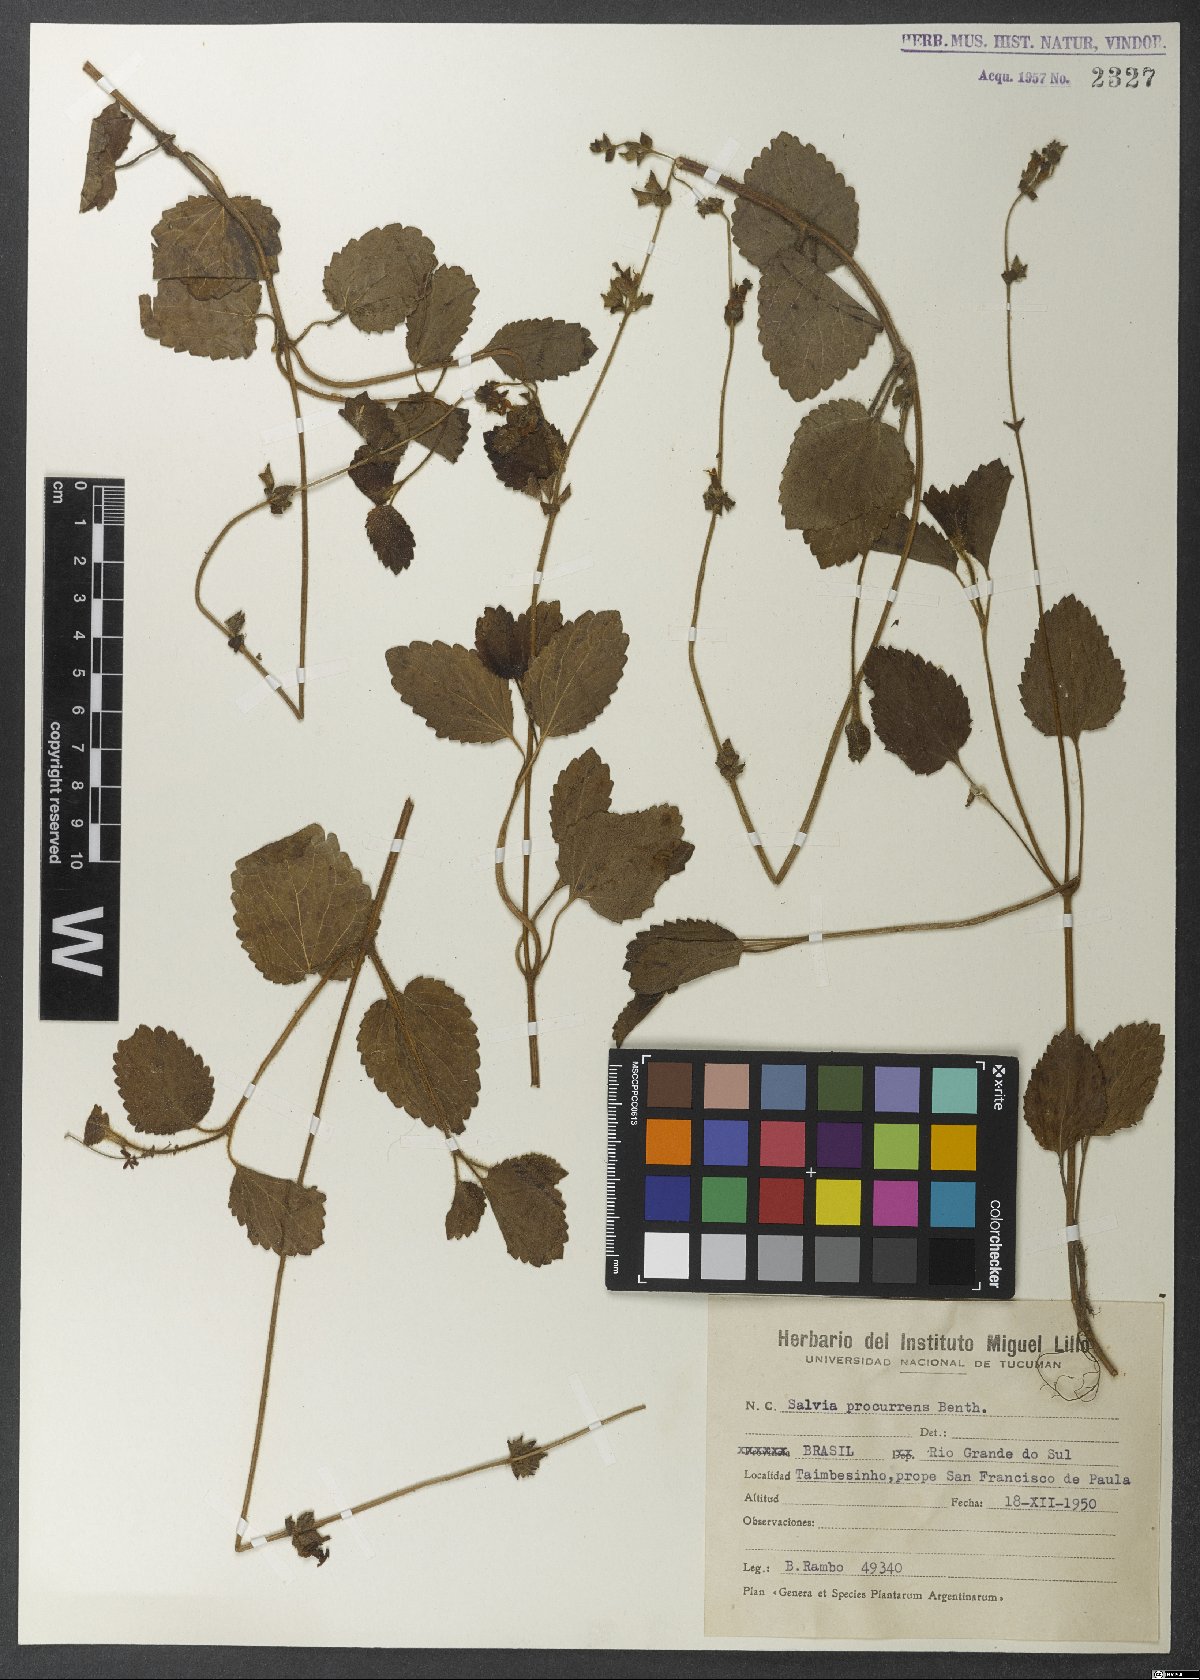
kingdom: Plantae
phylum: Tracheophyta
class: Magnoliopsida
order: Lamiales
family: Lamiaceae
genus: Salvia
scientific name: Salvia procurrens
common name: Blue creeper
